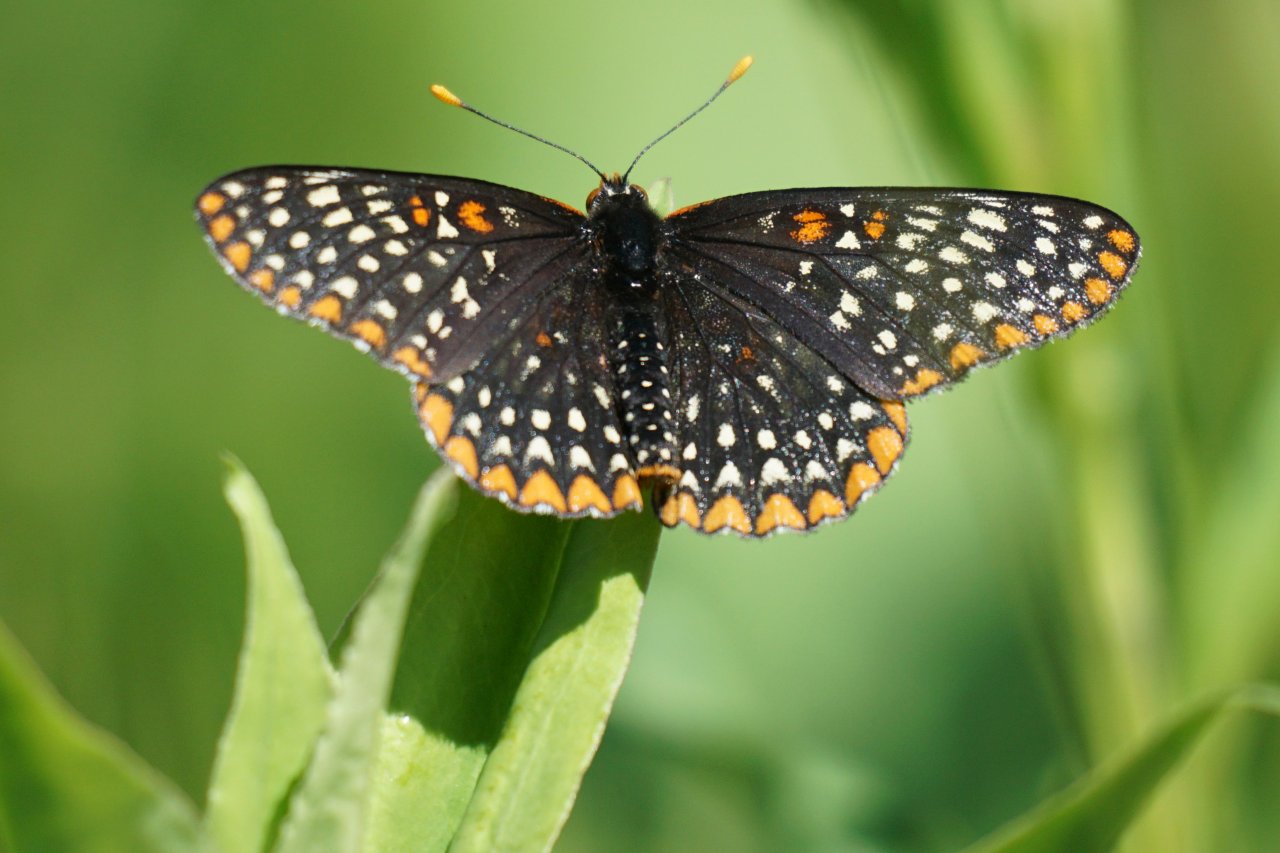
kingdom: Animalia
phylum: Arthropoda
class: Insecta
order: Lepidoptera
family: Nymphalidae
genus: Euphydryas
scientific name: Euphydryas phaeton
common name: Baltimore Checkerspot
